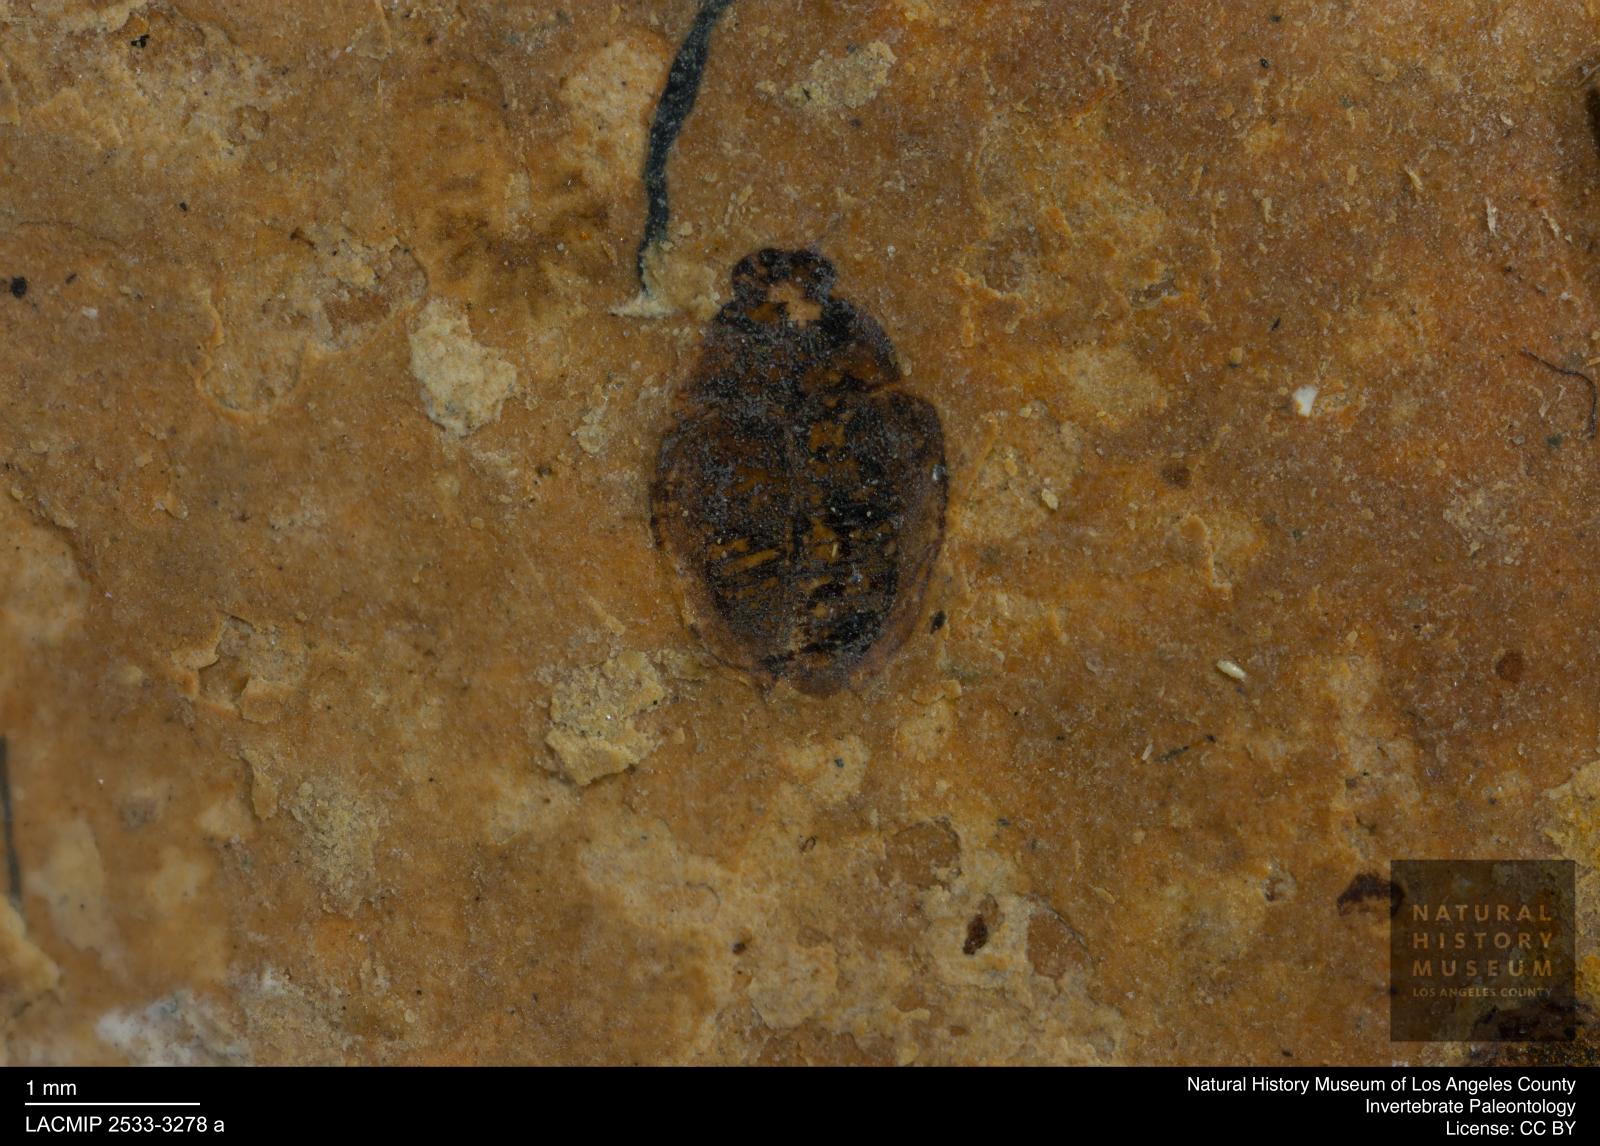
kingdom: Animalia
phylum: Arthropoda
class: Insecta
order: Coleoptera
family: Hydrophilidae
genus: Paracymus
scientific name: Paracymus excitatus
